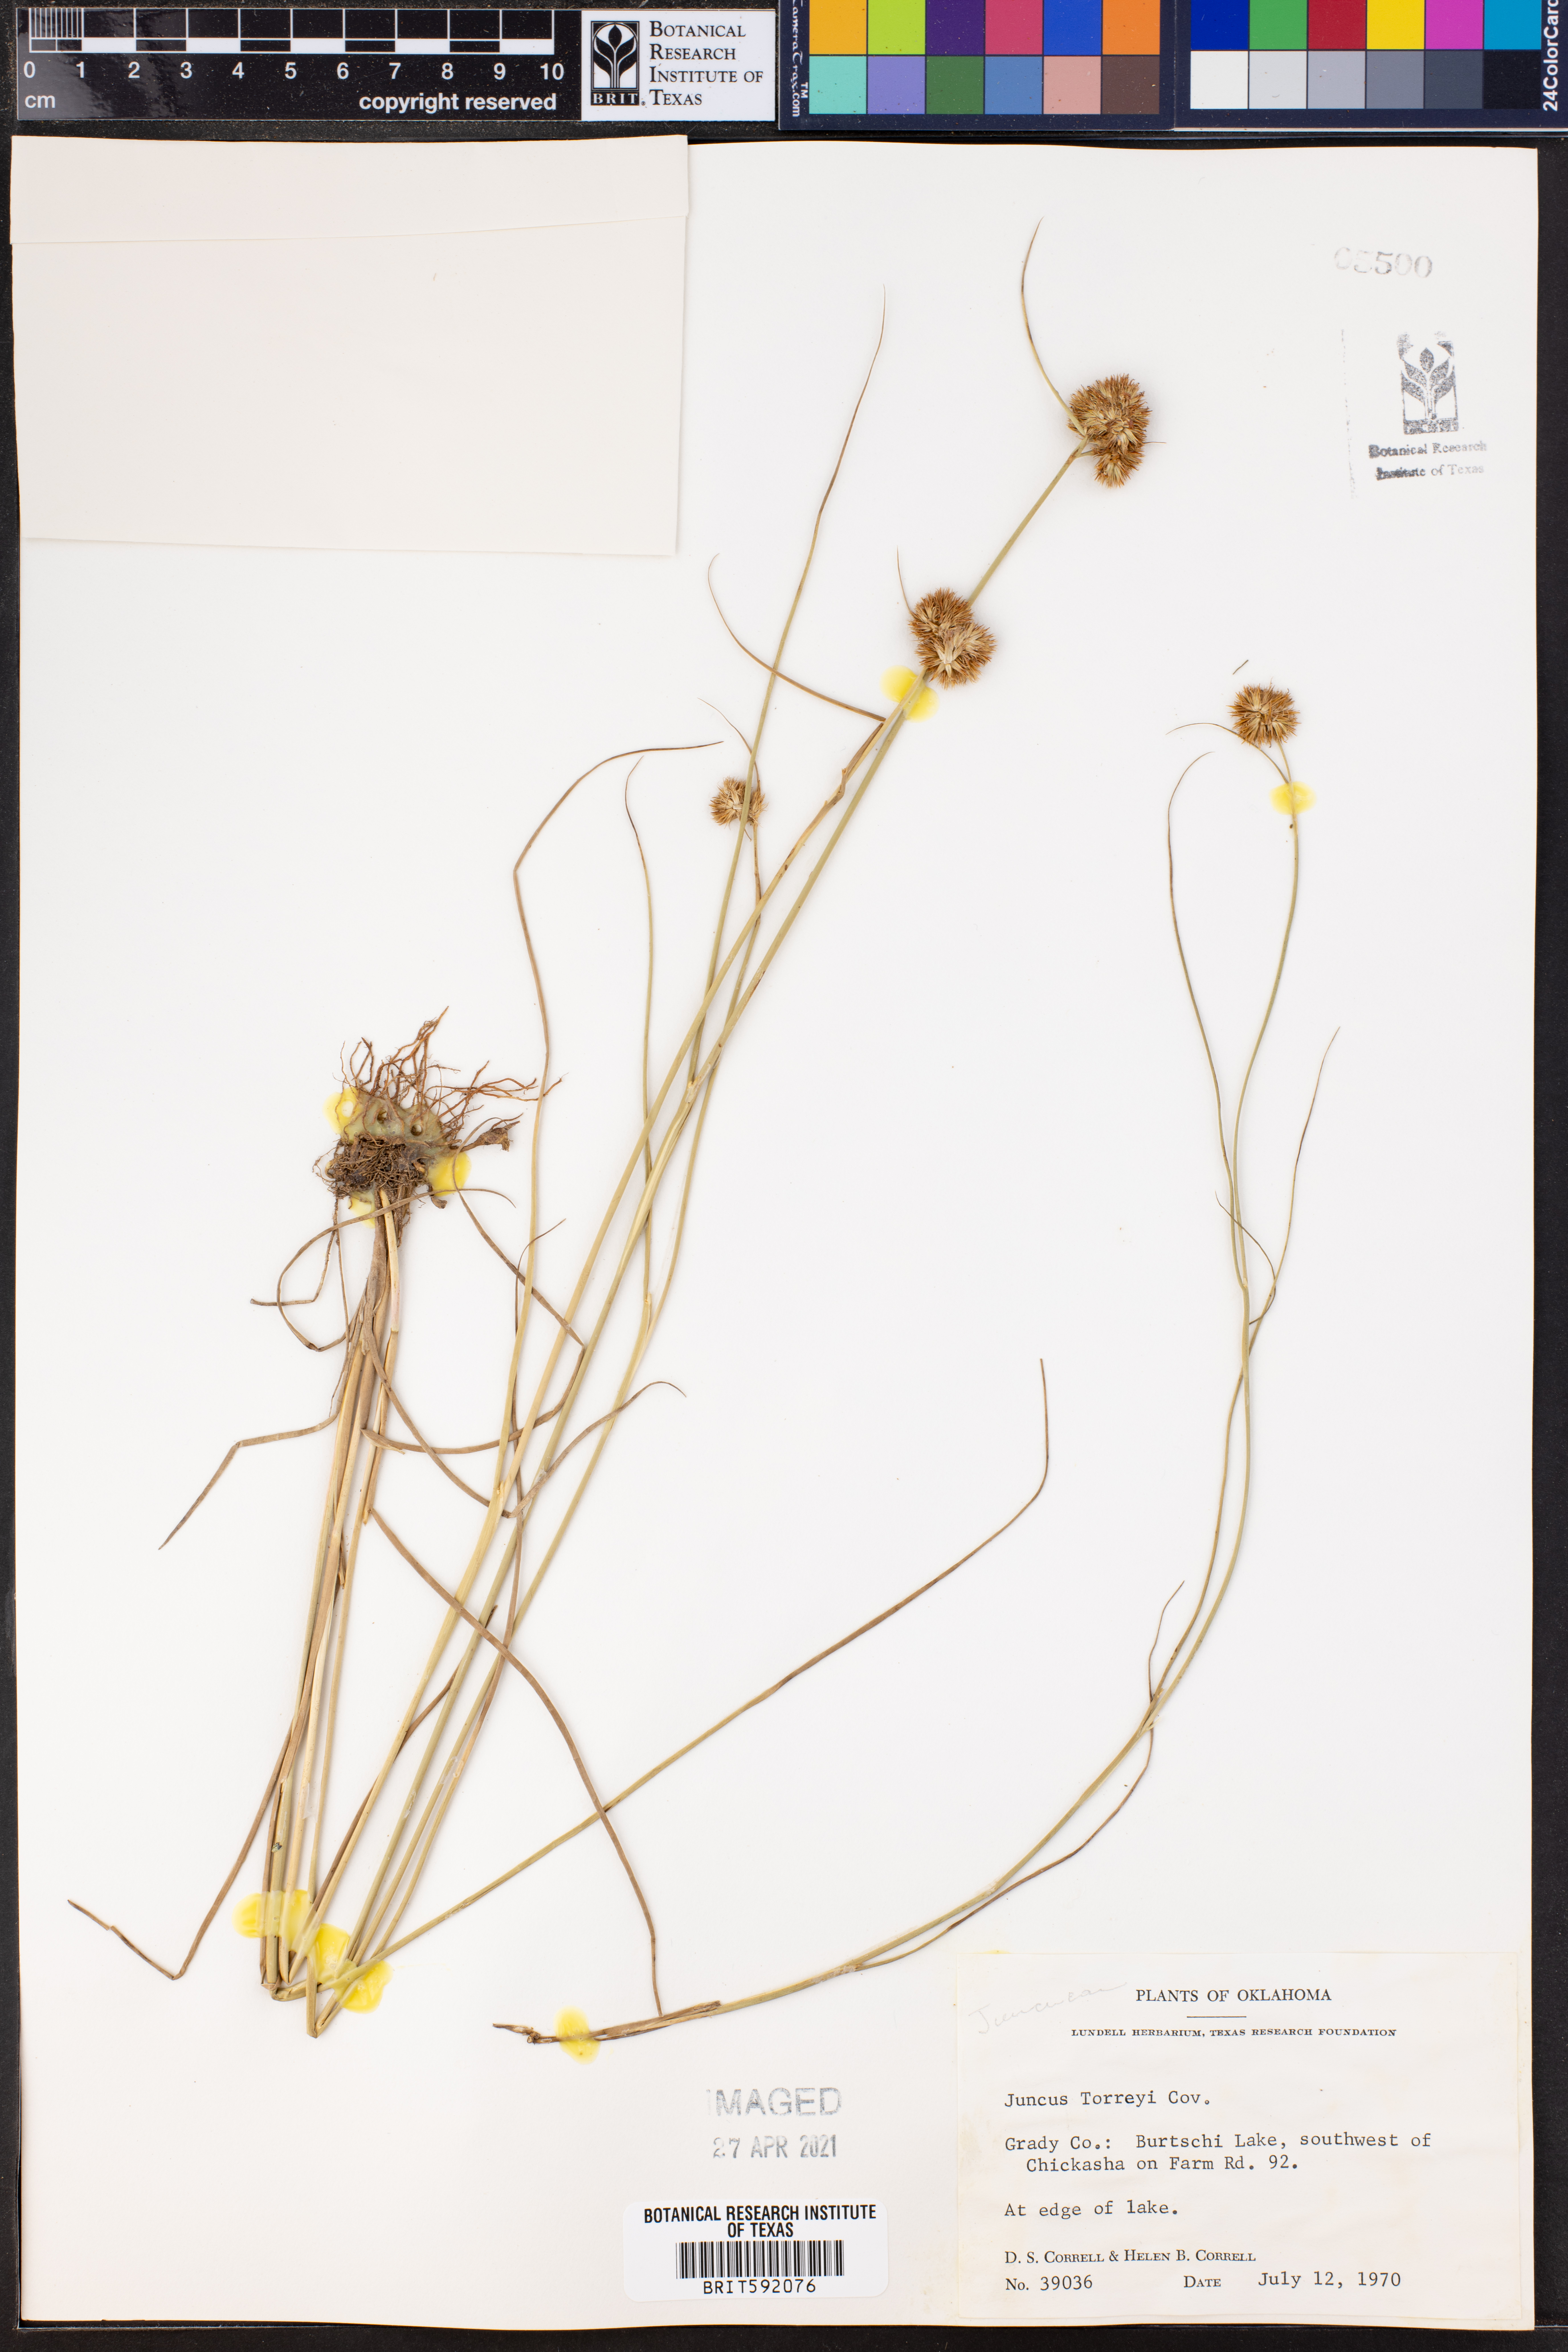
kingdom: Plantae
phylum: Tracheophyta
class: Liliopsida
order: Poales
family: Juncaceae
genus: Juncus
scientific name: Juncus torreyi
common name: Torrey's rush
